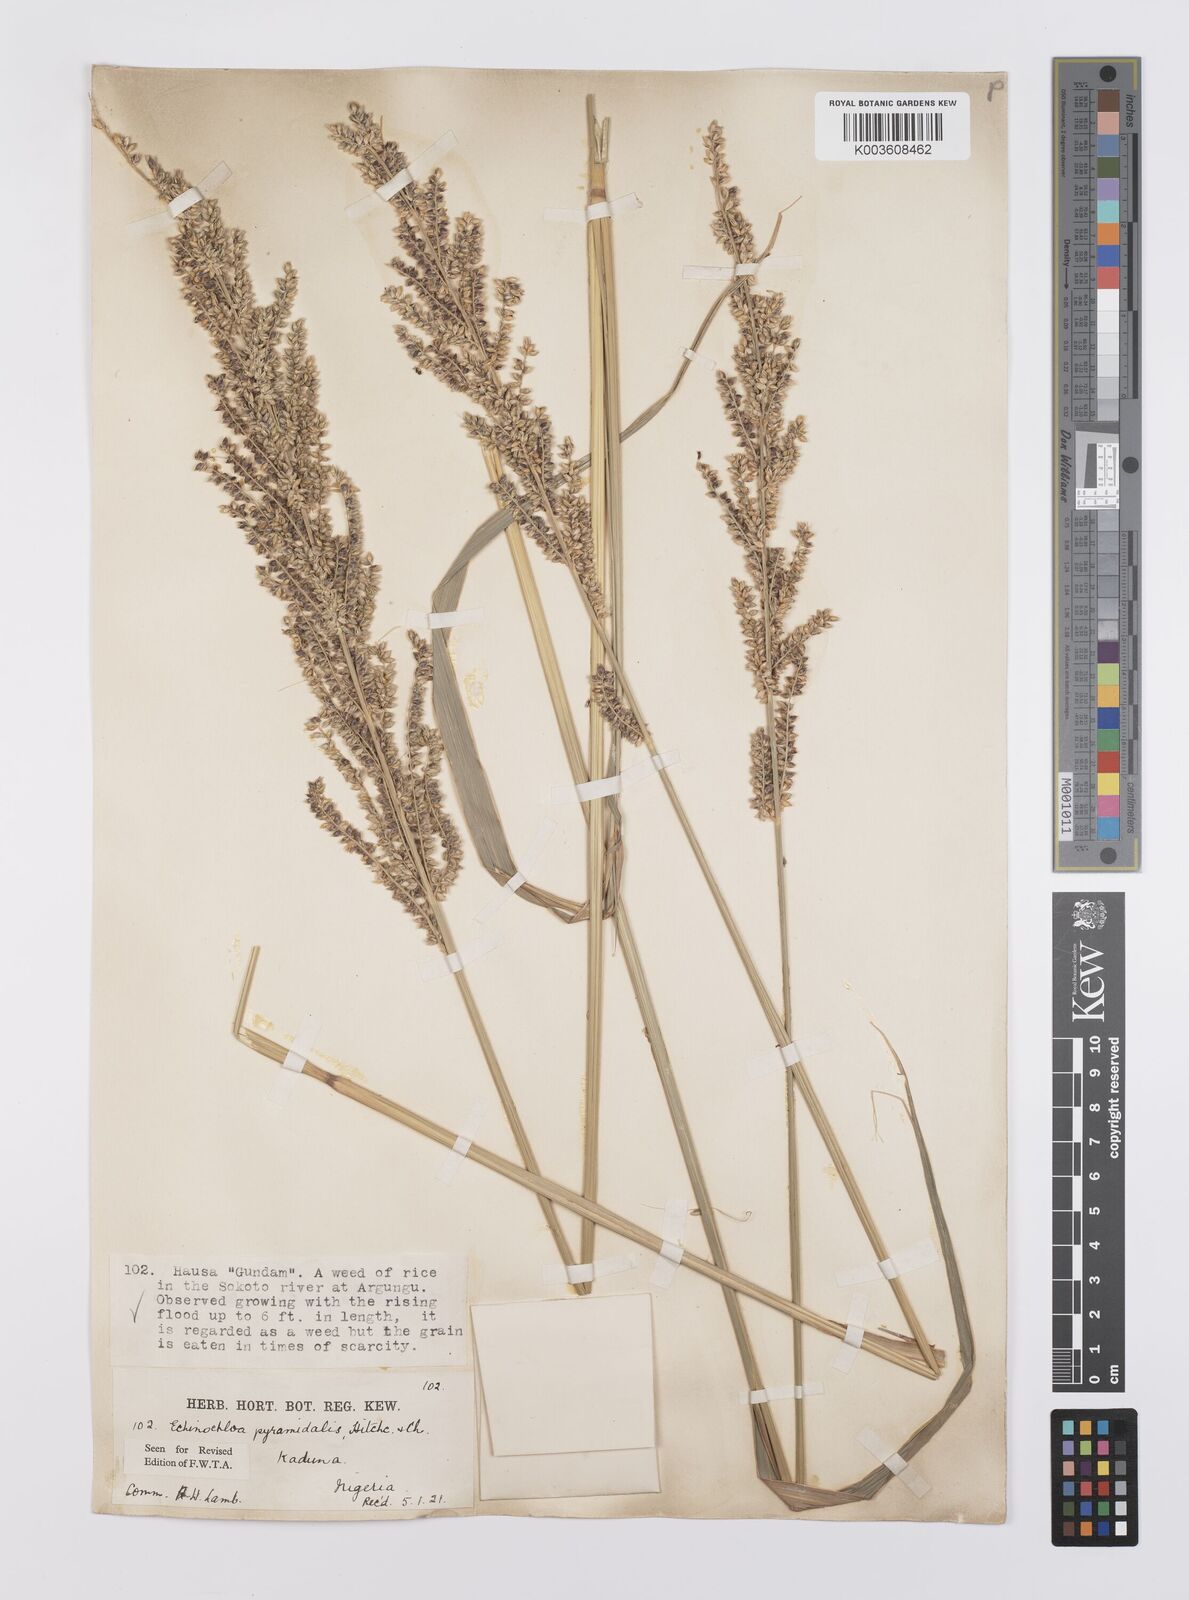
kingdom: Plantae
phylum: Tracheophyta
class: Liliopsida
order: Poales
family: Poaceae
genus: Echinochloa
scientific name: Echinochloa pyramidalis
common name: Antelope grass
